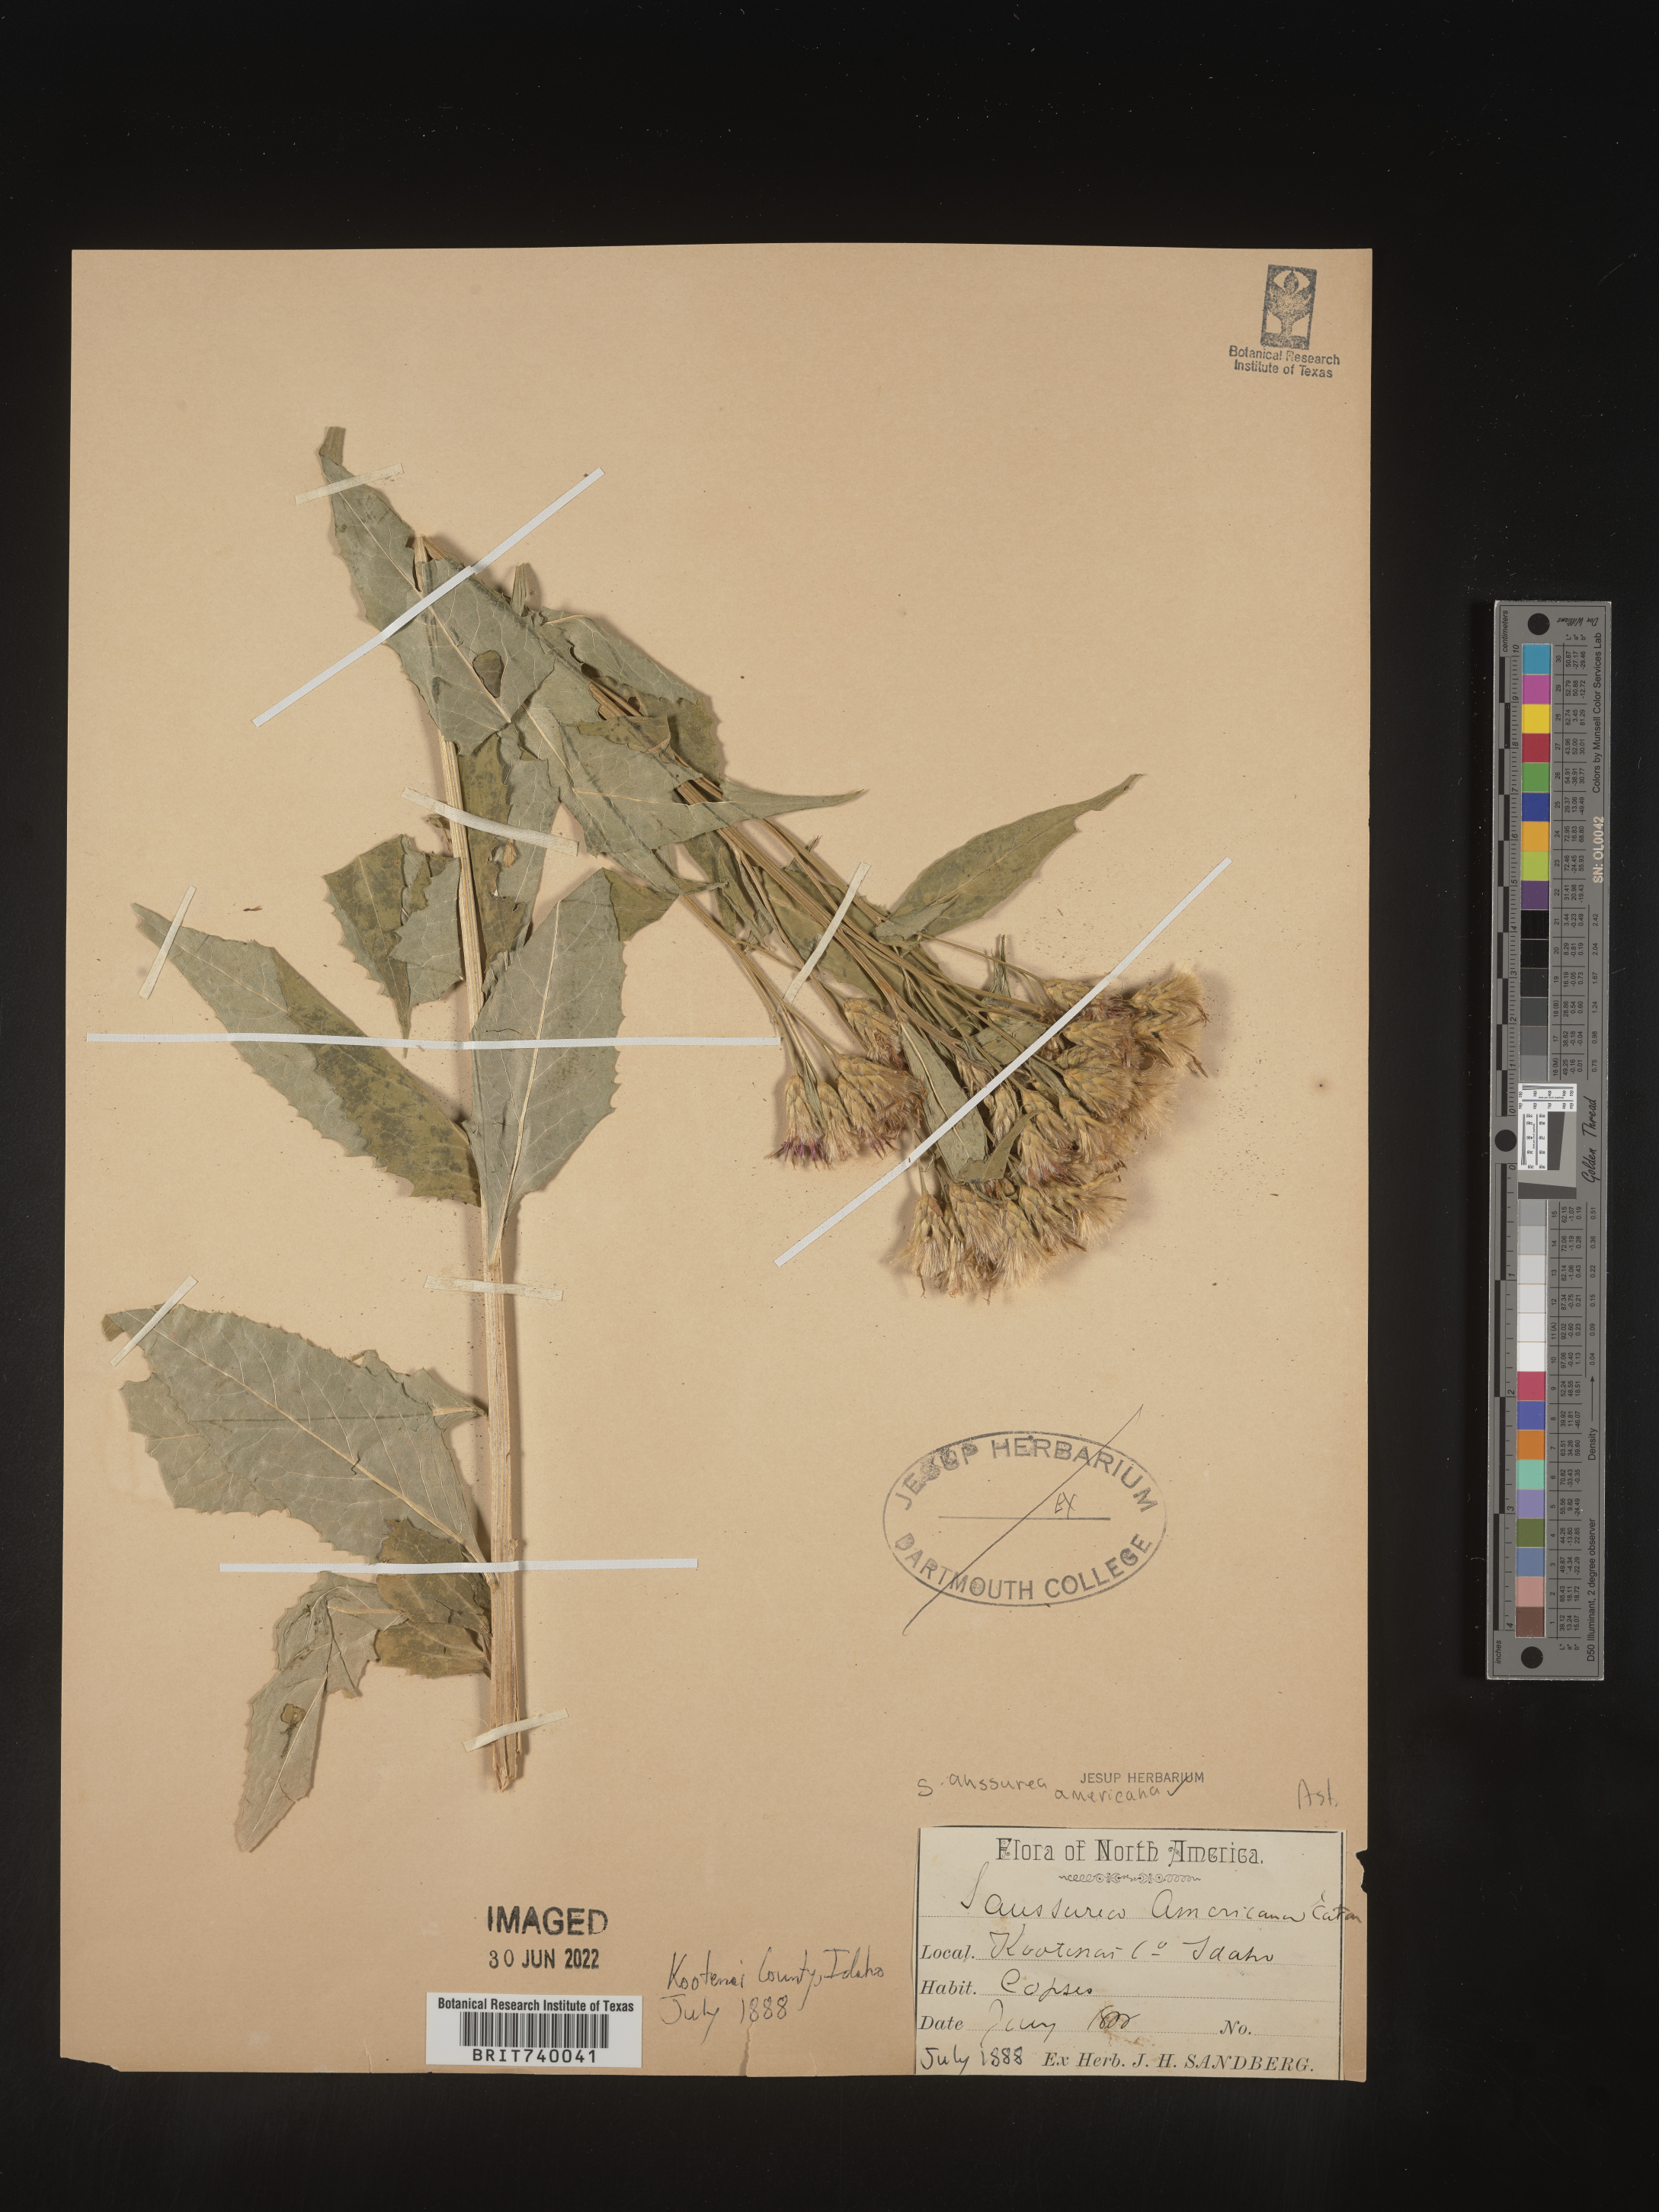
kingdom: Plantae
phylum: Tracheophyta
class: Magnoliopsida
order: Asterales
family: Asteraceae
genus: Saussurea
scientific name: Saussurea
